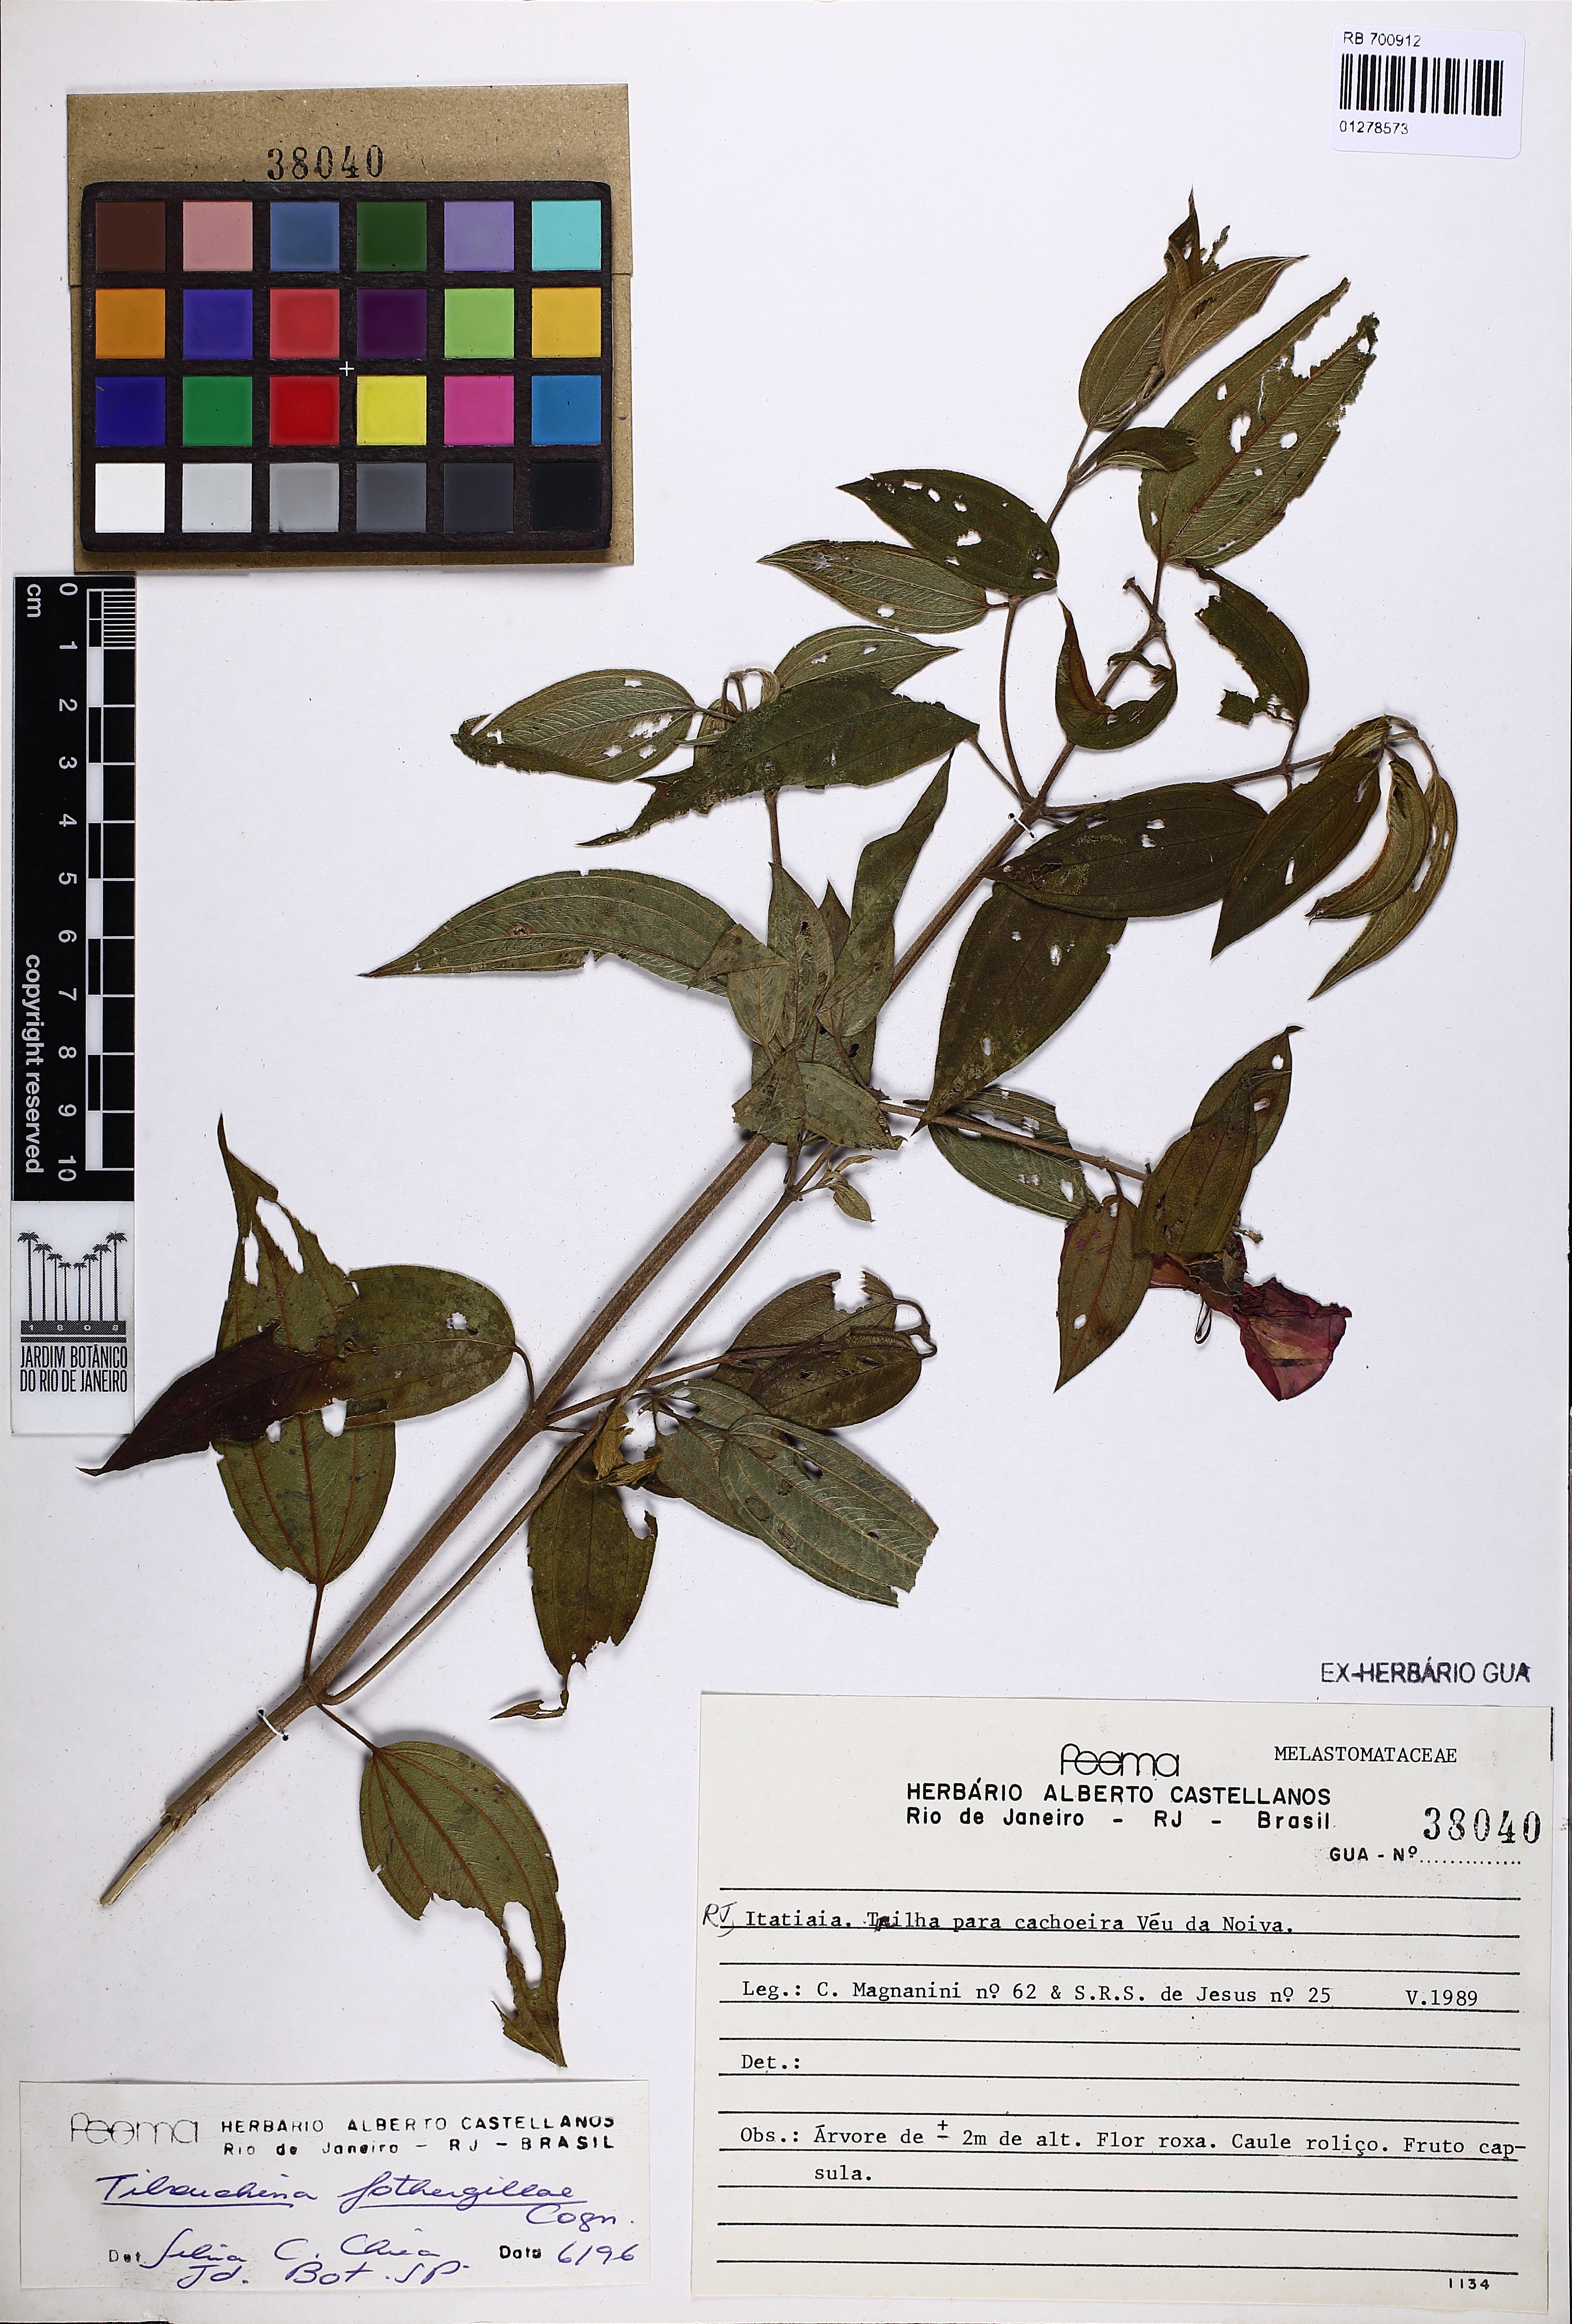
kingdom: Plantae
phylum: Tracheophyta
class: Magnoliopsida
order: Myrtales
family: Melastomataceae
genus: Pleroma
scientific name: Pleroma fothergillae
